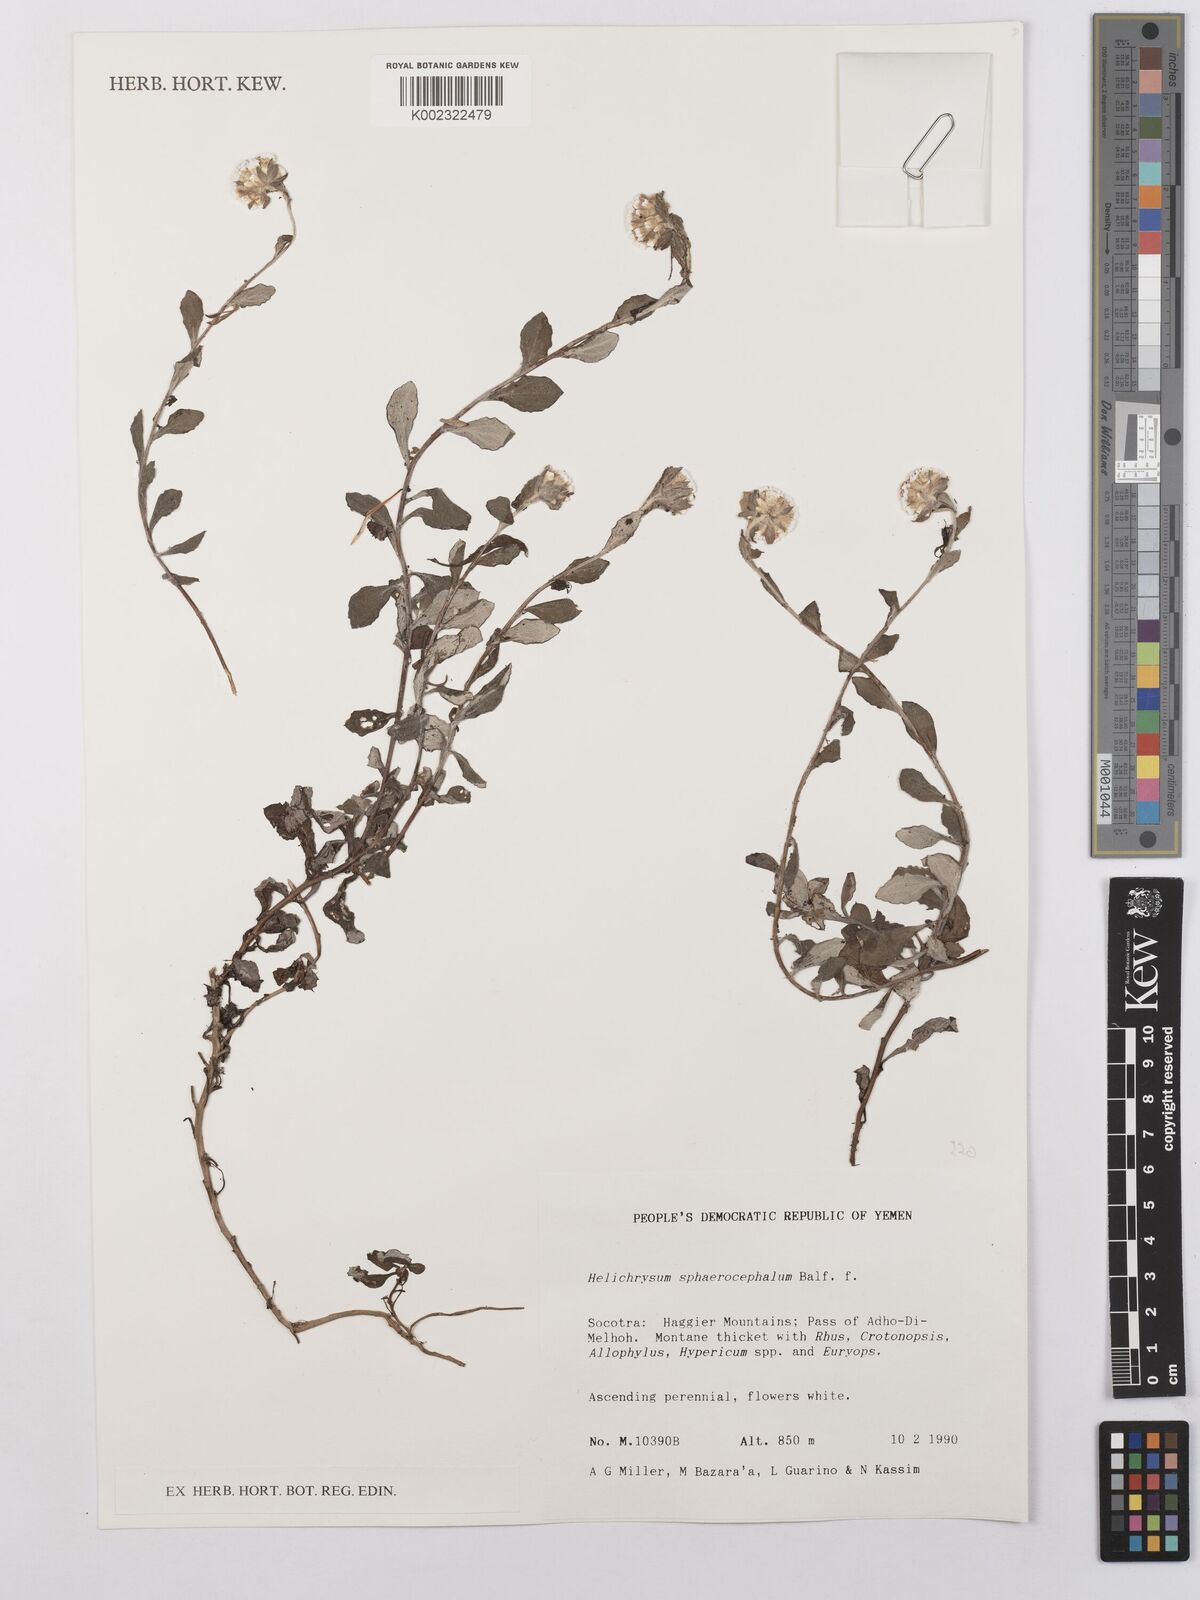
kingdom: Plantae
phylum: Tracheophyta
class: Magnoliopsida
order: Asterales
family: Asteraceae
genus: Libinhania
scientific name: Libinhania sphaerocephala
